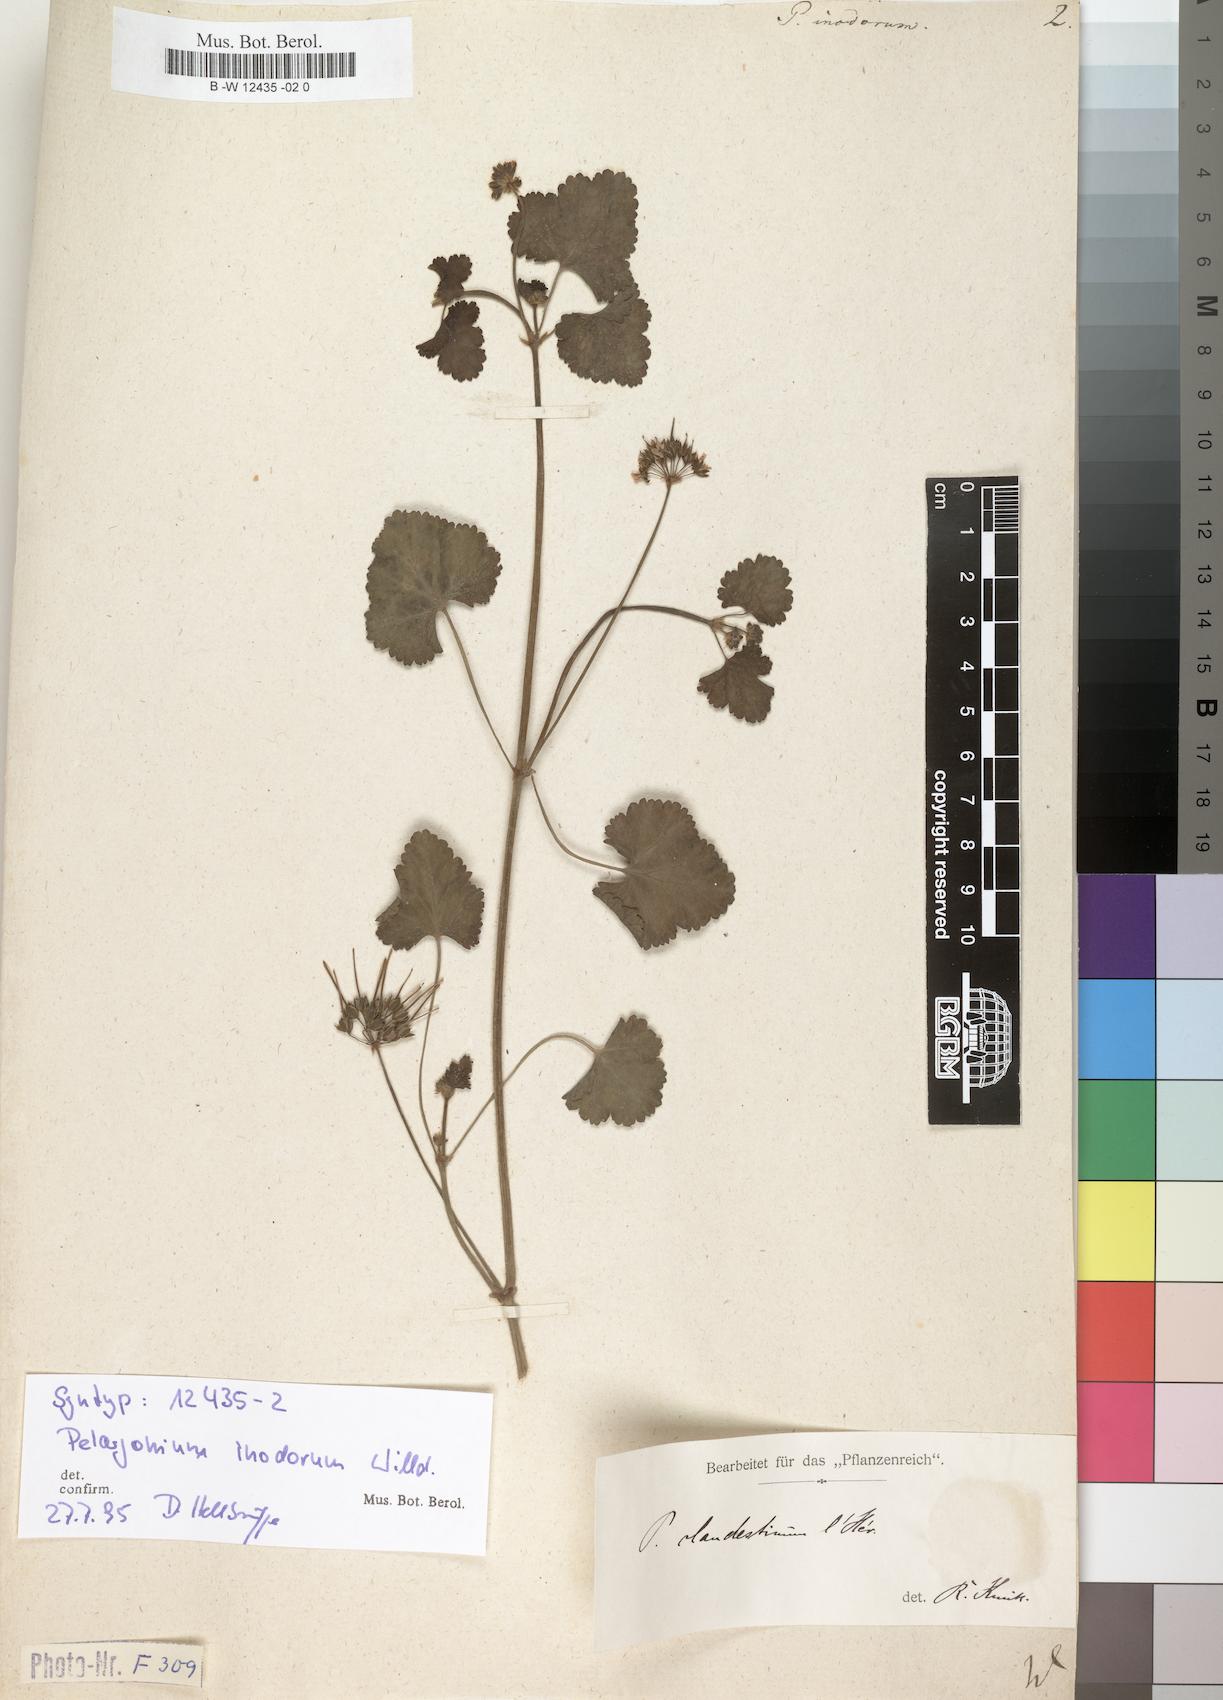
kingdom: Plantae
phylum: Tracheophyta
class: Magnoliopsida
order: Geraniales
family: Geraniaceae
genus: Pelargonium
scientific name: Pelargonium inodorum
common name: Kopata geranium
